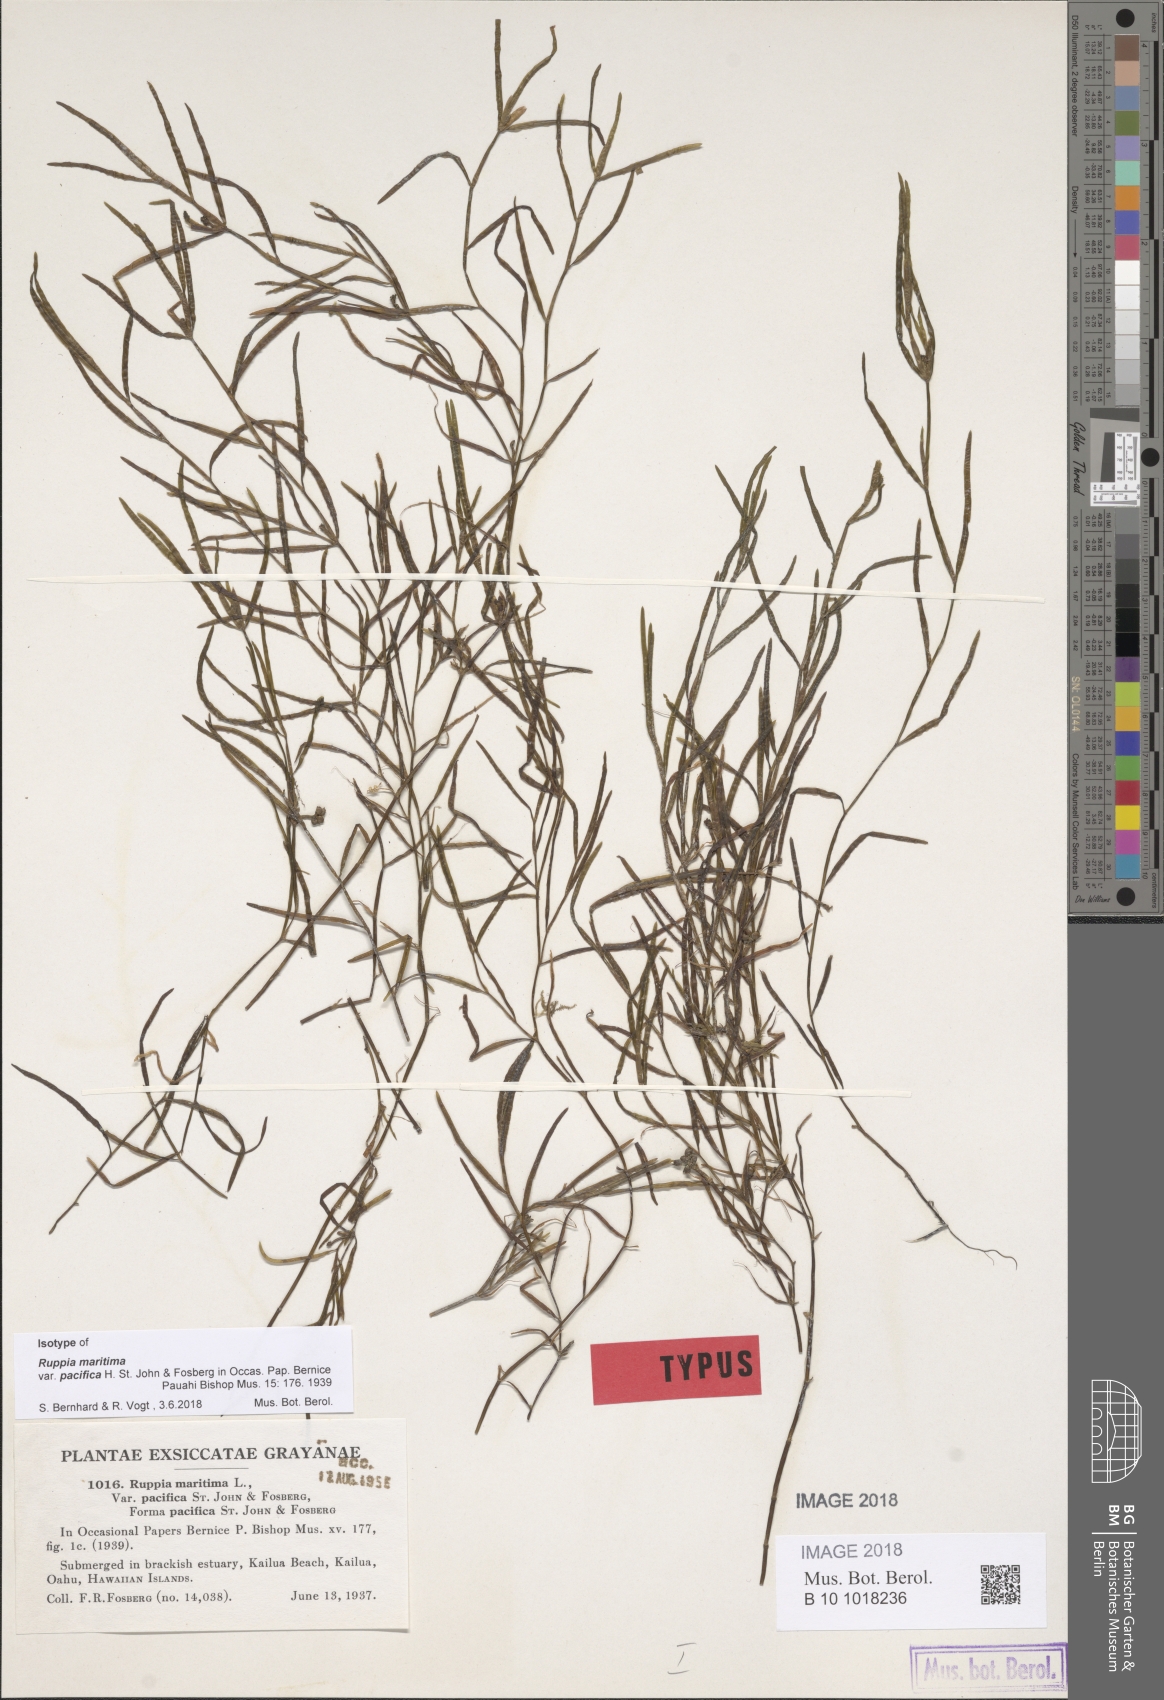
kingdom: Plantae
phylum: Tracheophyta
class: Liliopsida
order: Alismatales
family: Ruppiaceae
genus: Ruppia
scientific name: Ruppia maritima
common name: Beaked tasselweed
